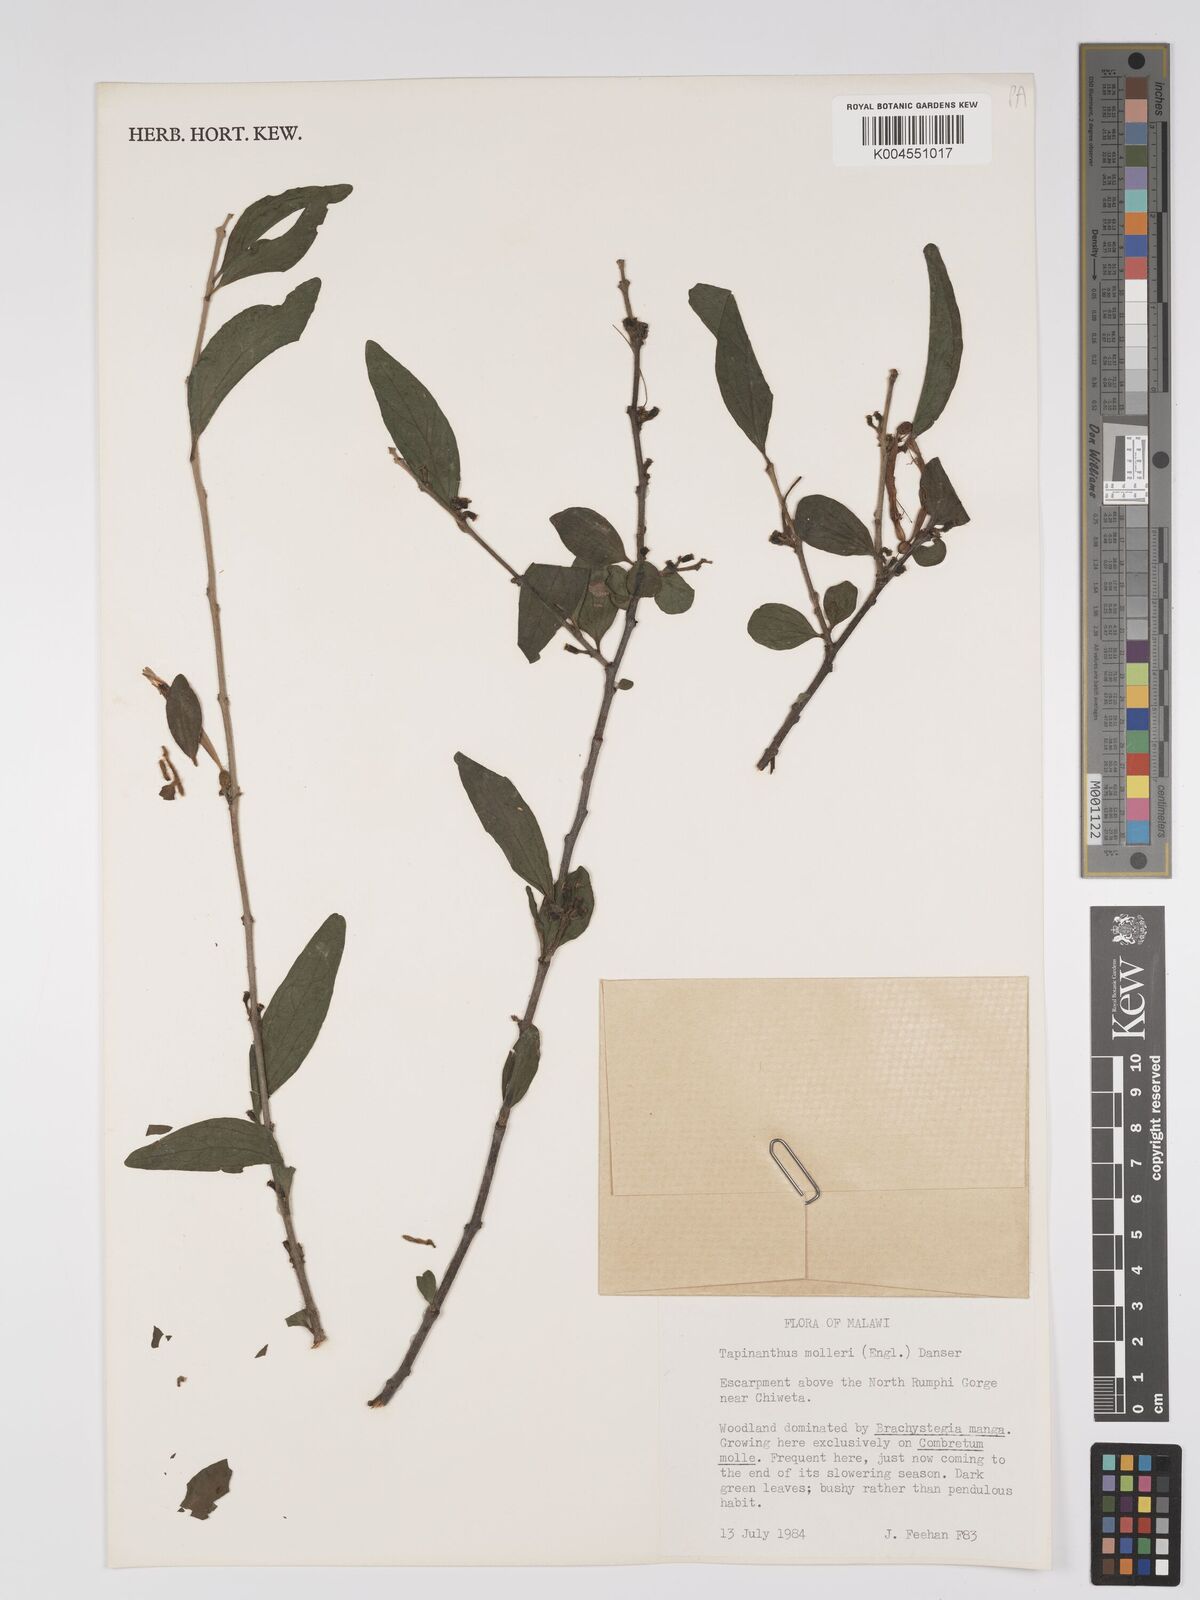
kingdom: Plantae
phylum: Tracheophyta
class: Magnoliopsida
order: Santalales
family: Loranthaceae
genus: Agelanthus
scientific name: Agelanthus molleri
